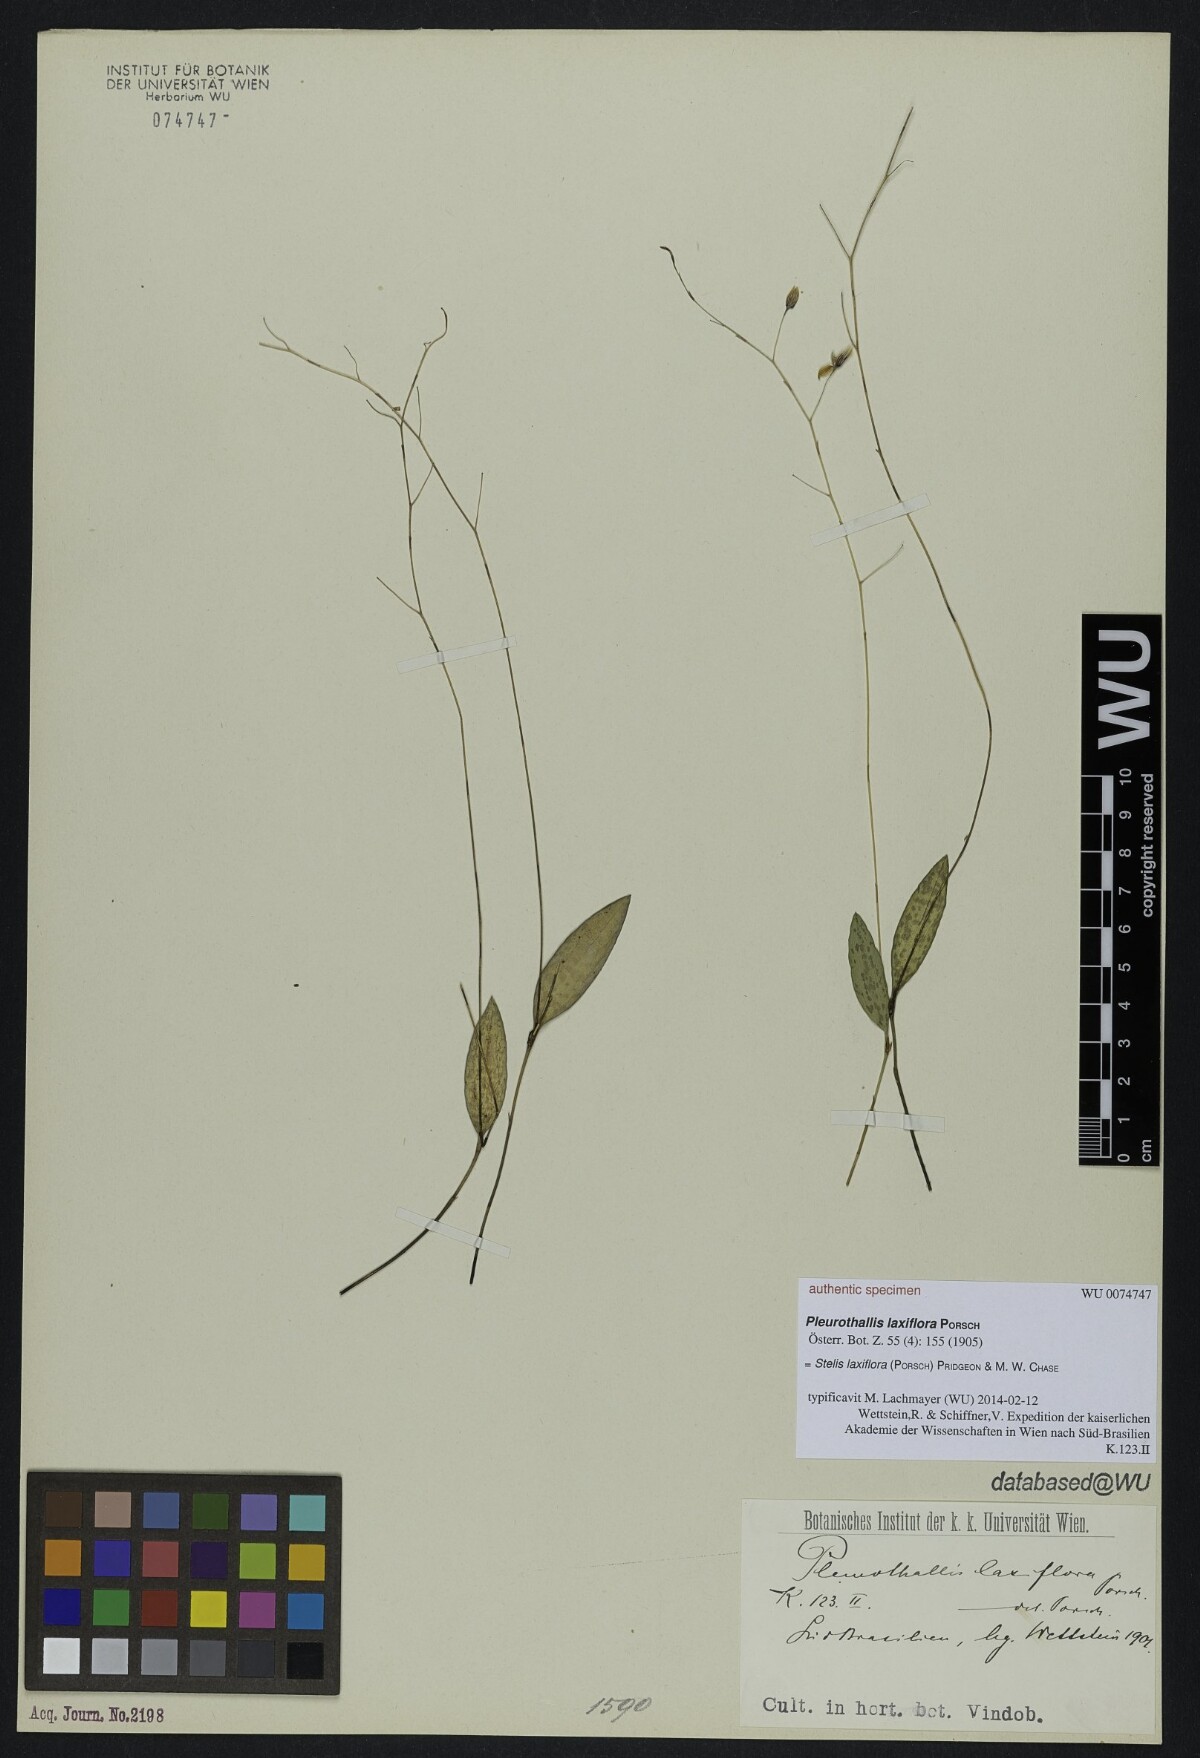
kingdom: Plantae
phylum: Tracheophyta
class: Liliopsida
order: Asparagales
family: Orchidaceae
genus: Pabstiella
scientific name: Pabstiella laxiflora
